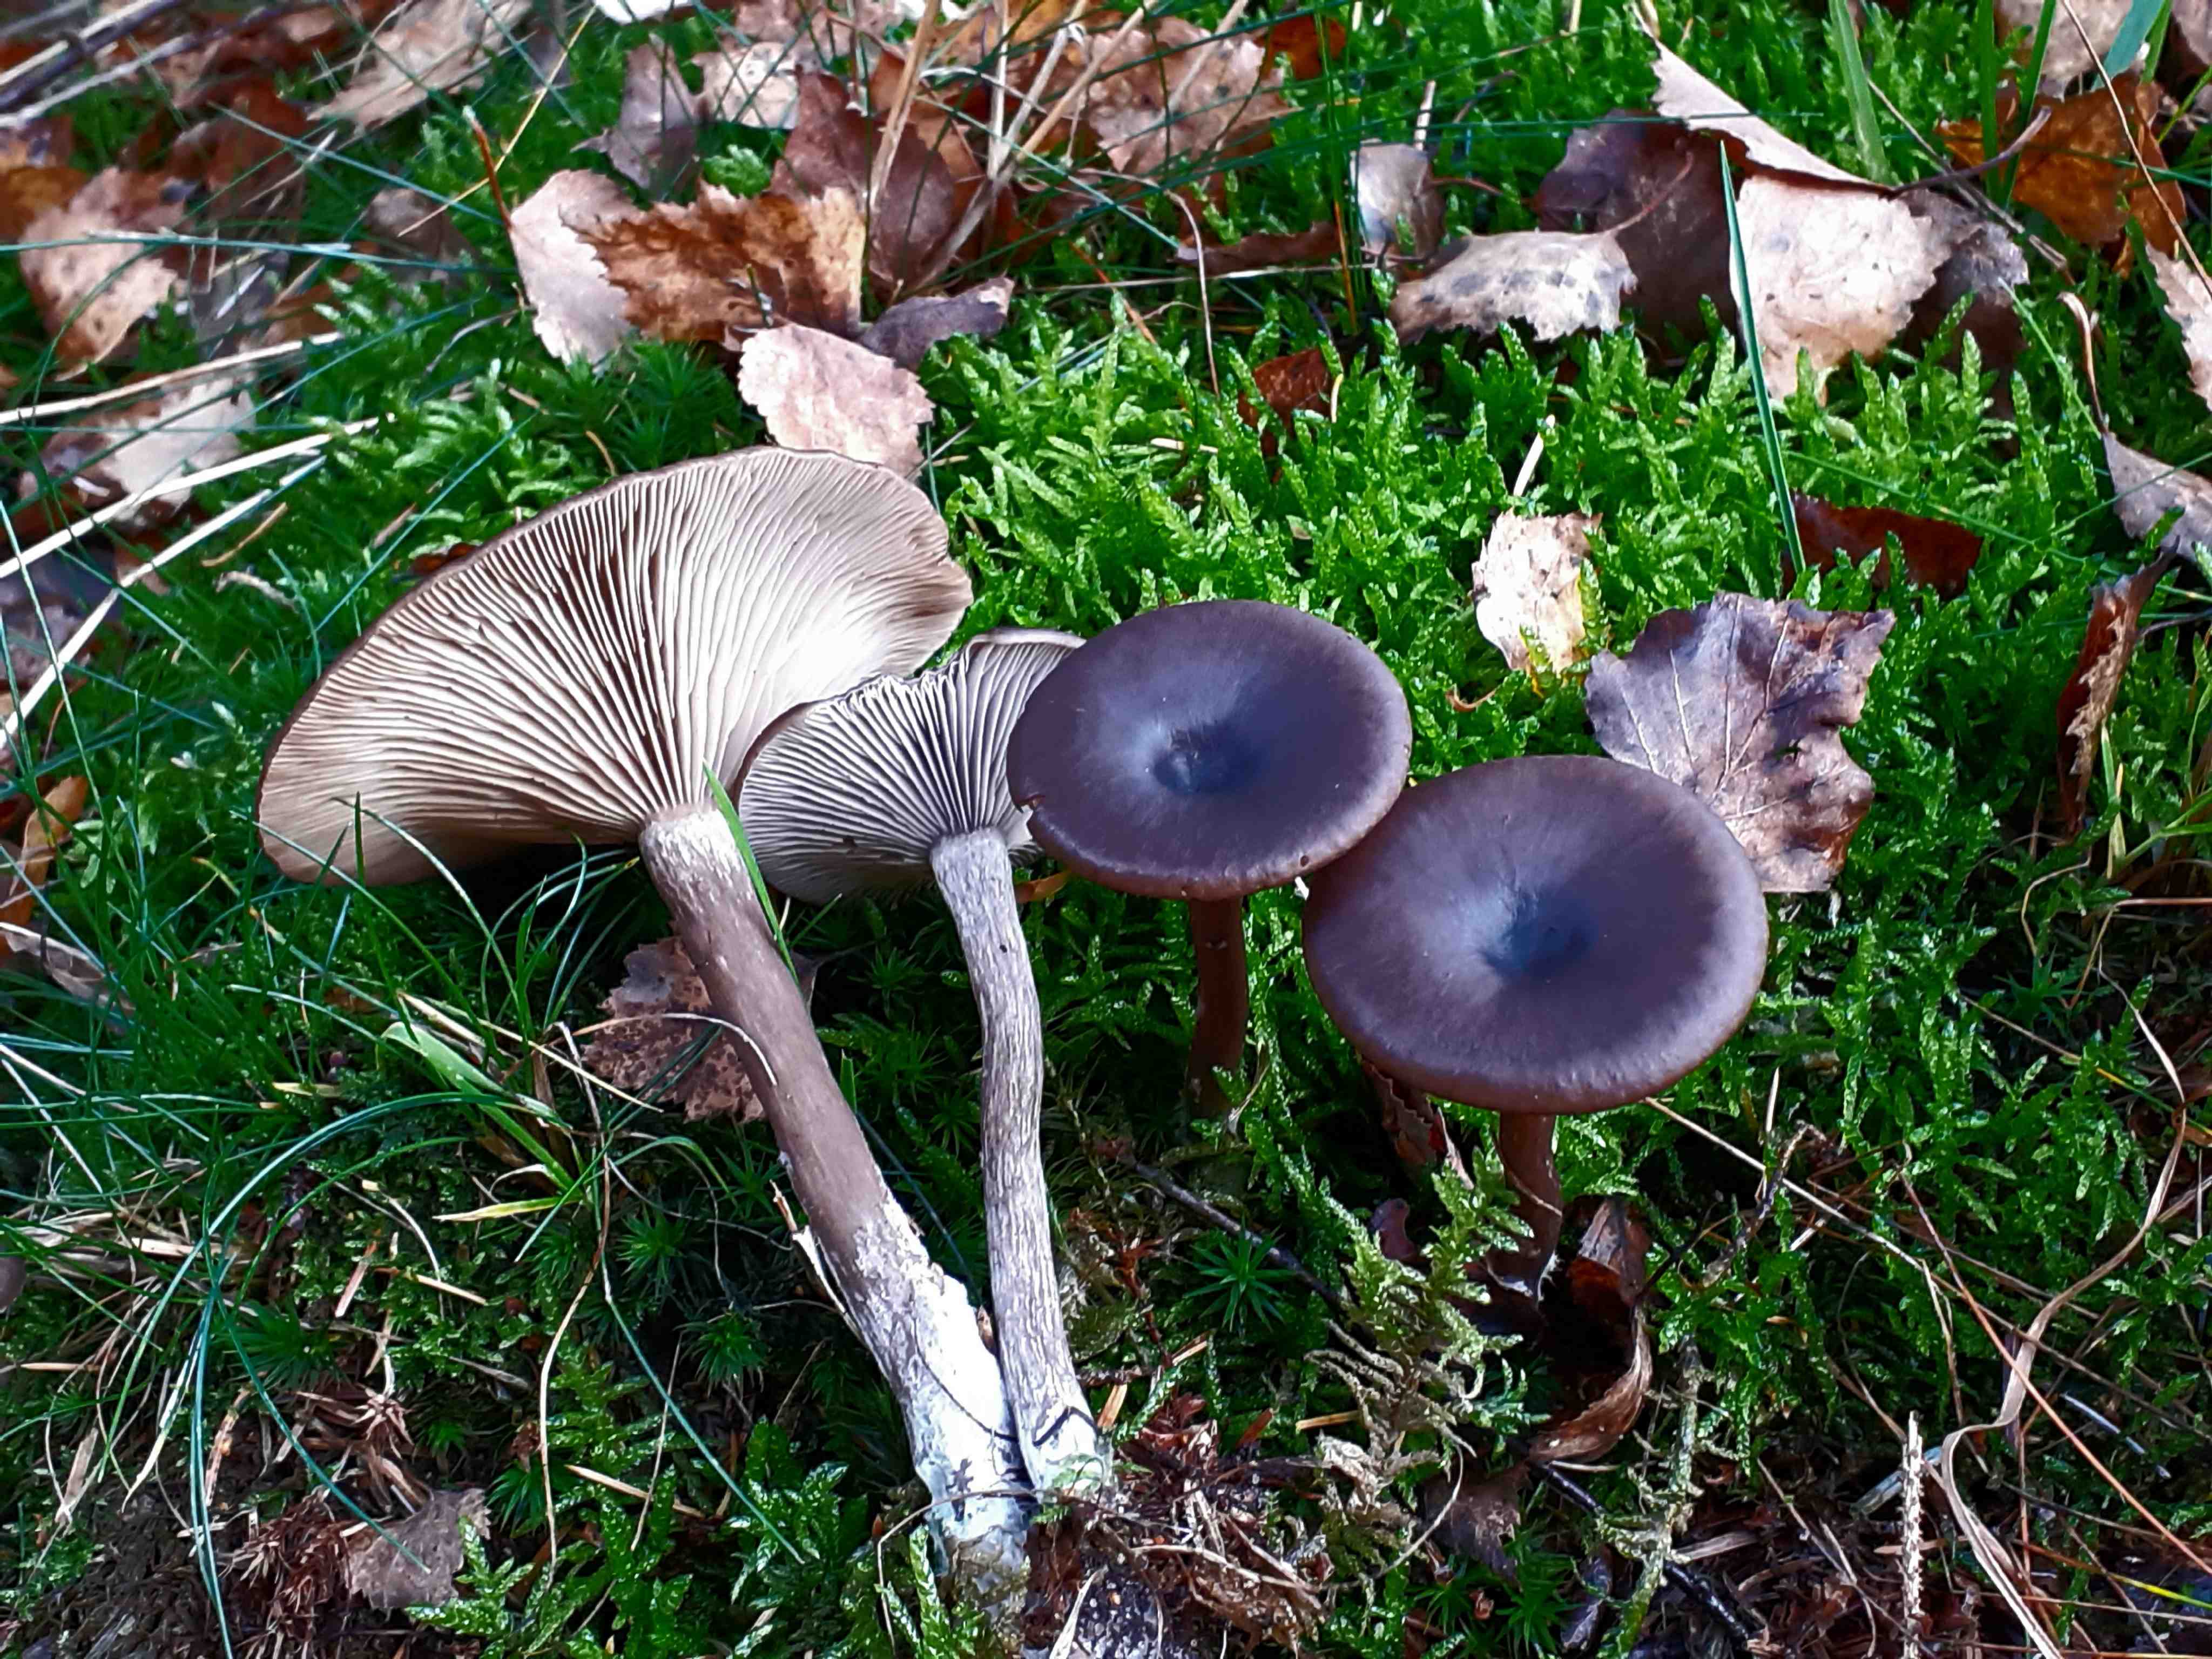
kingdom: Fungi
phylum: Basidiomycota
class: Agaricomycetes
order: Agaricales
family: Pseudoclitocybaceae
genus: Pseudoclitocybe
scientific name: Pseudoclitocybe cyathiformis
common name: almindelig bægertragthat
